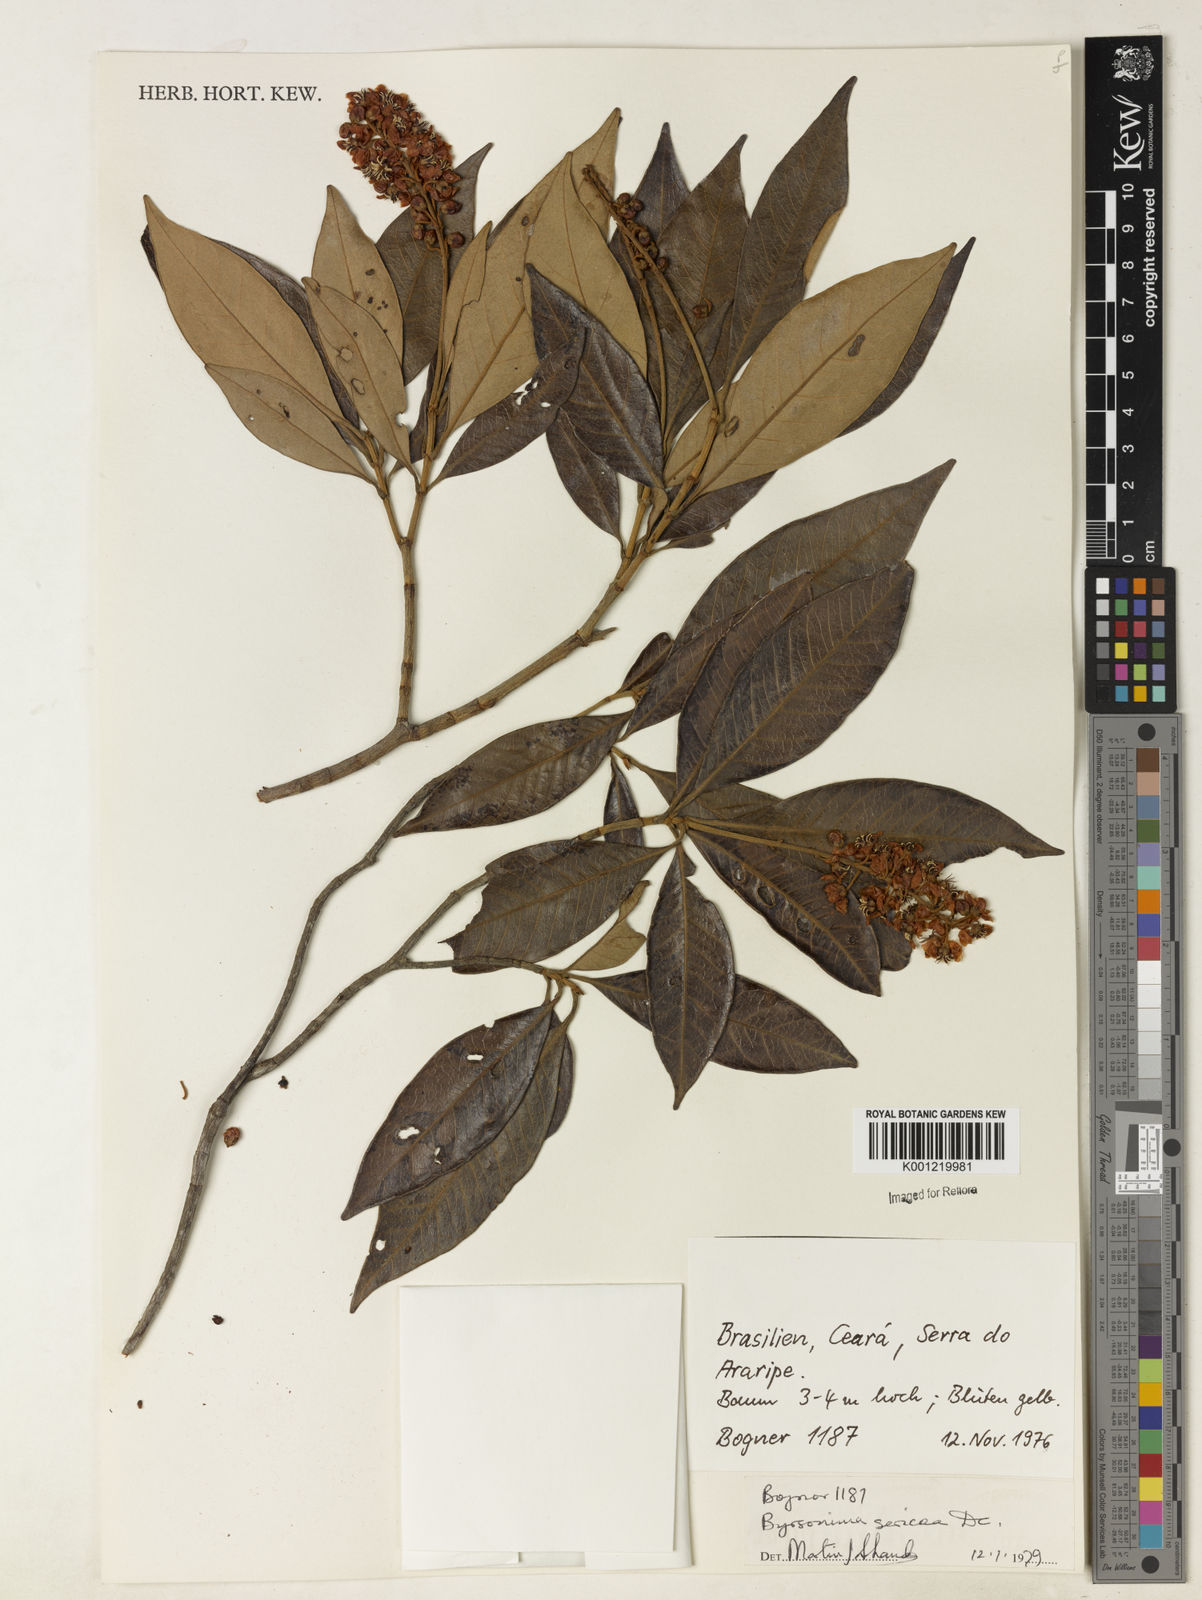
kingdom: Plantae
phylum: Tracheophyta
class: Magnoliopsida
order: Malpighiales
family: Malpighiaceae
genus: Byrsonima
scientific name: Byrsonima sericea
